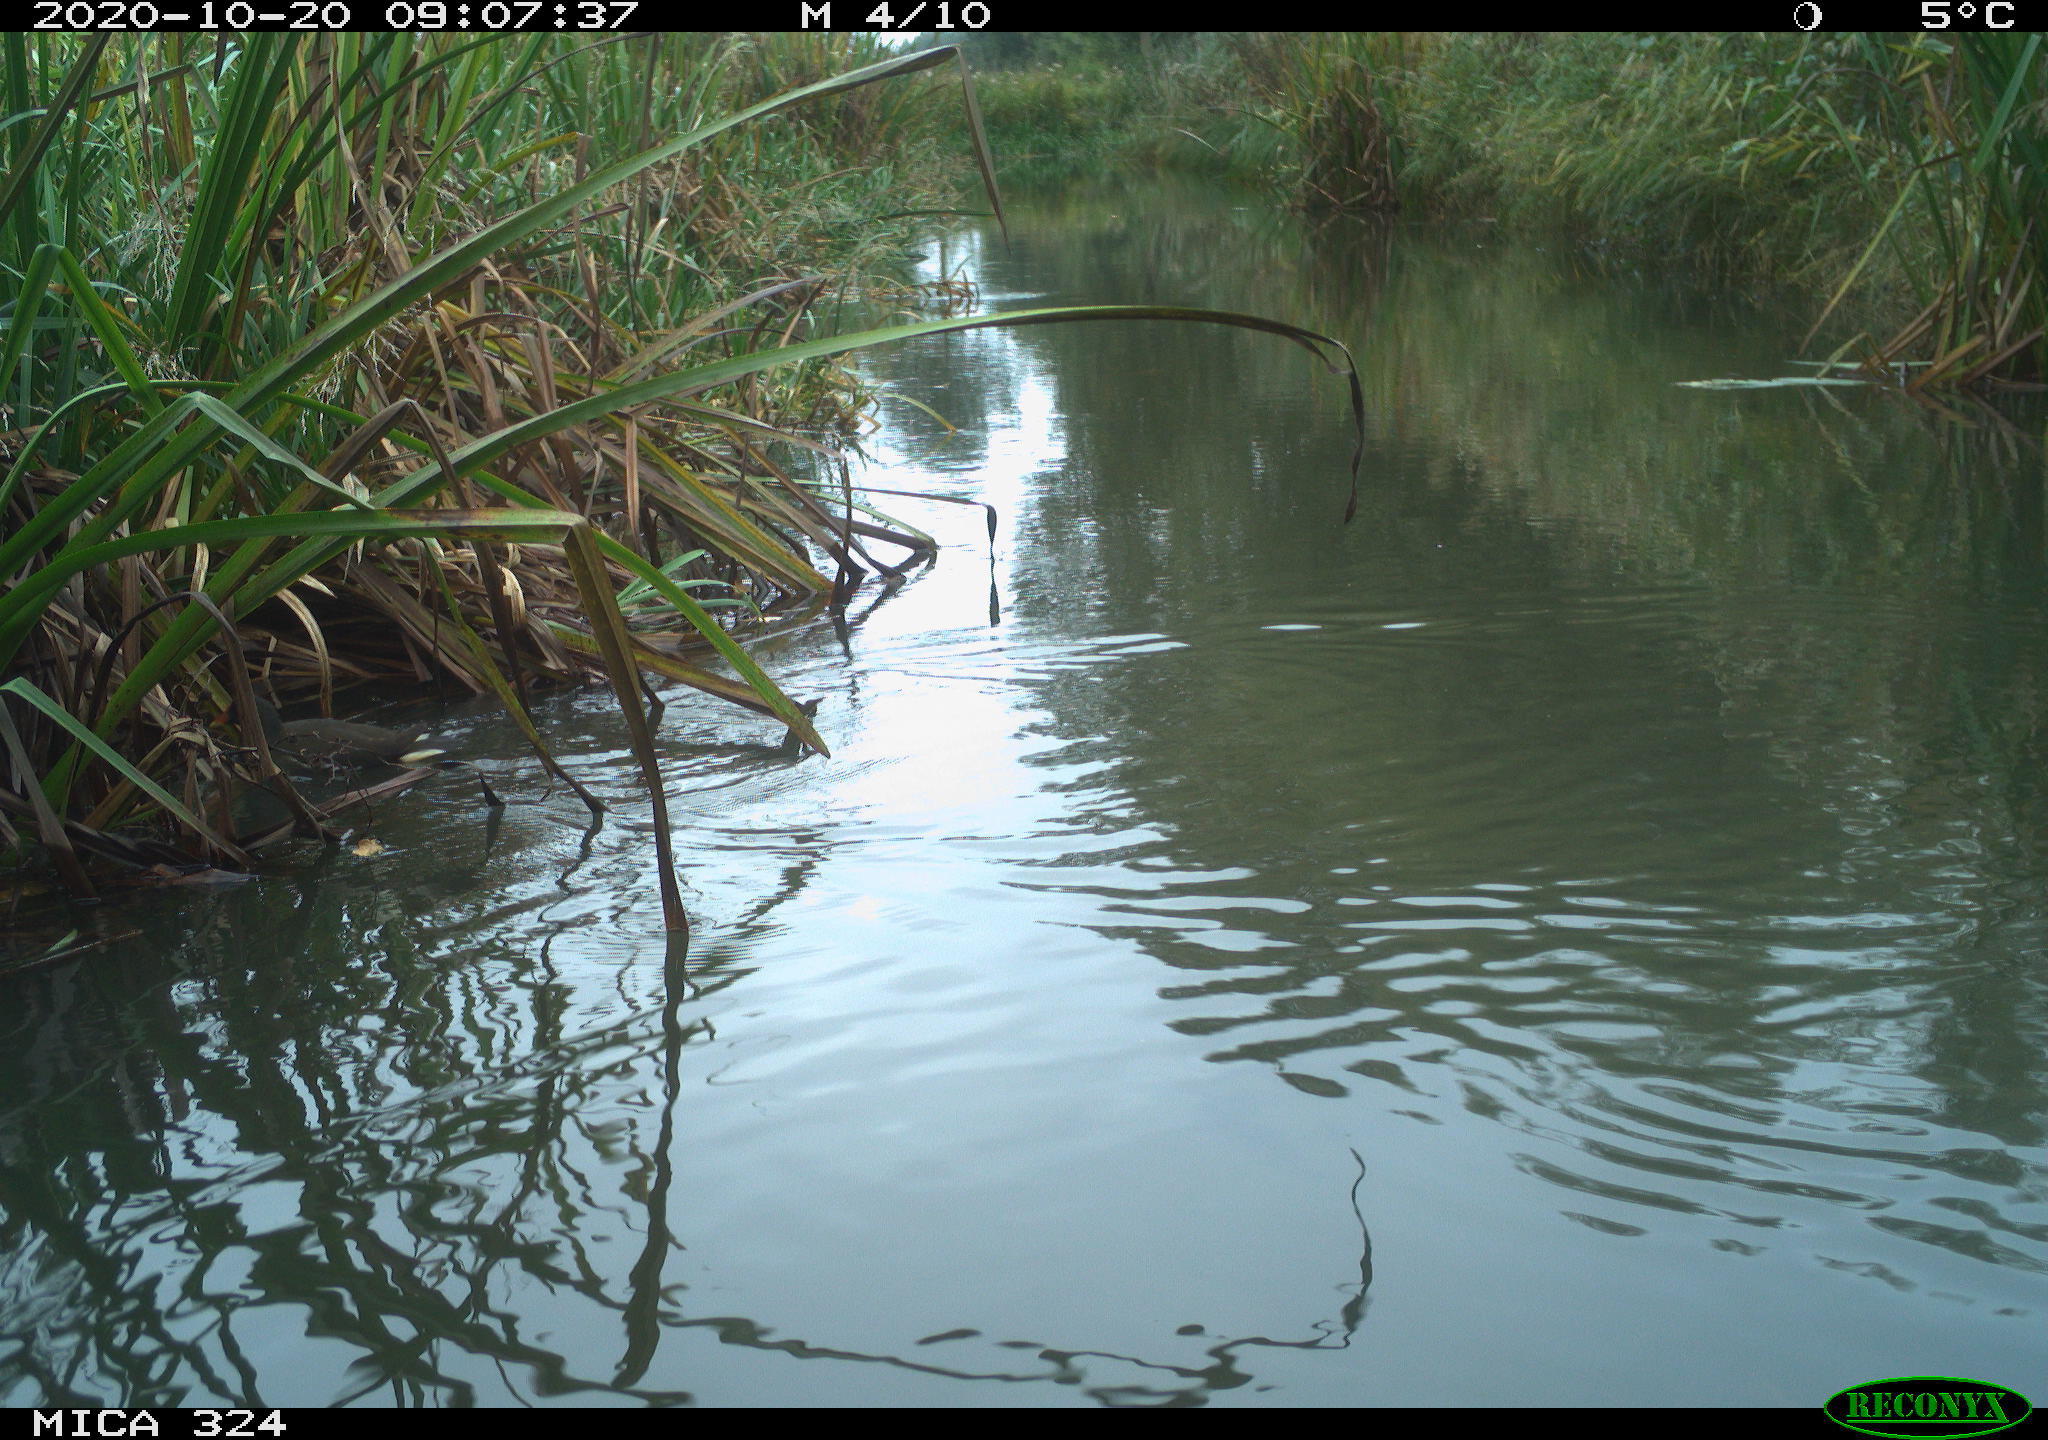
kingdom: Animalia
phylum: Chordata
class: Aves
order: Gruiformes
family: Rallidae
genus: Gallinula
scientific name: Gallinula chloropus
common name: Common moorhen
